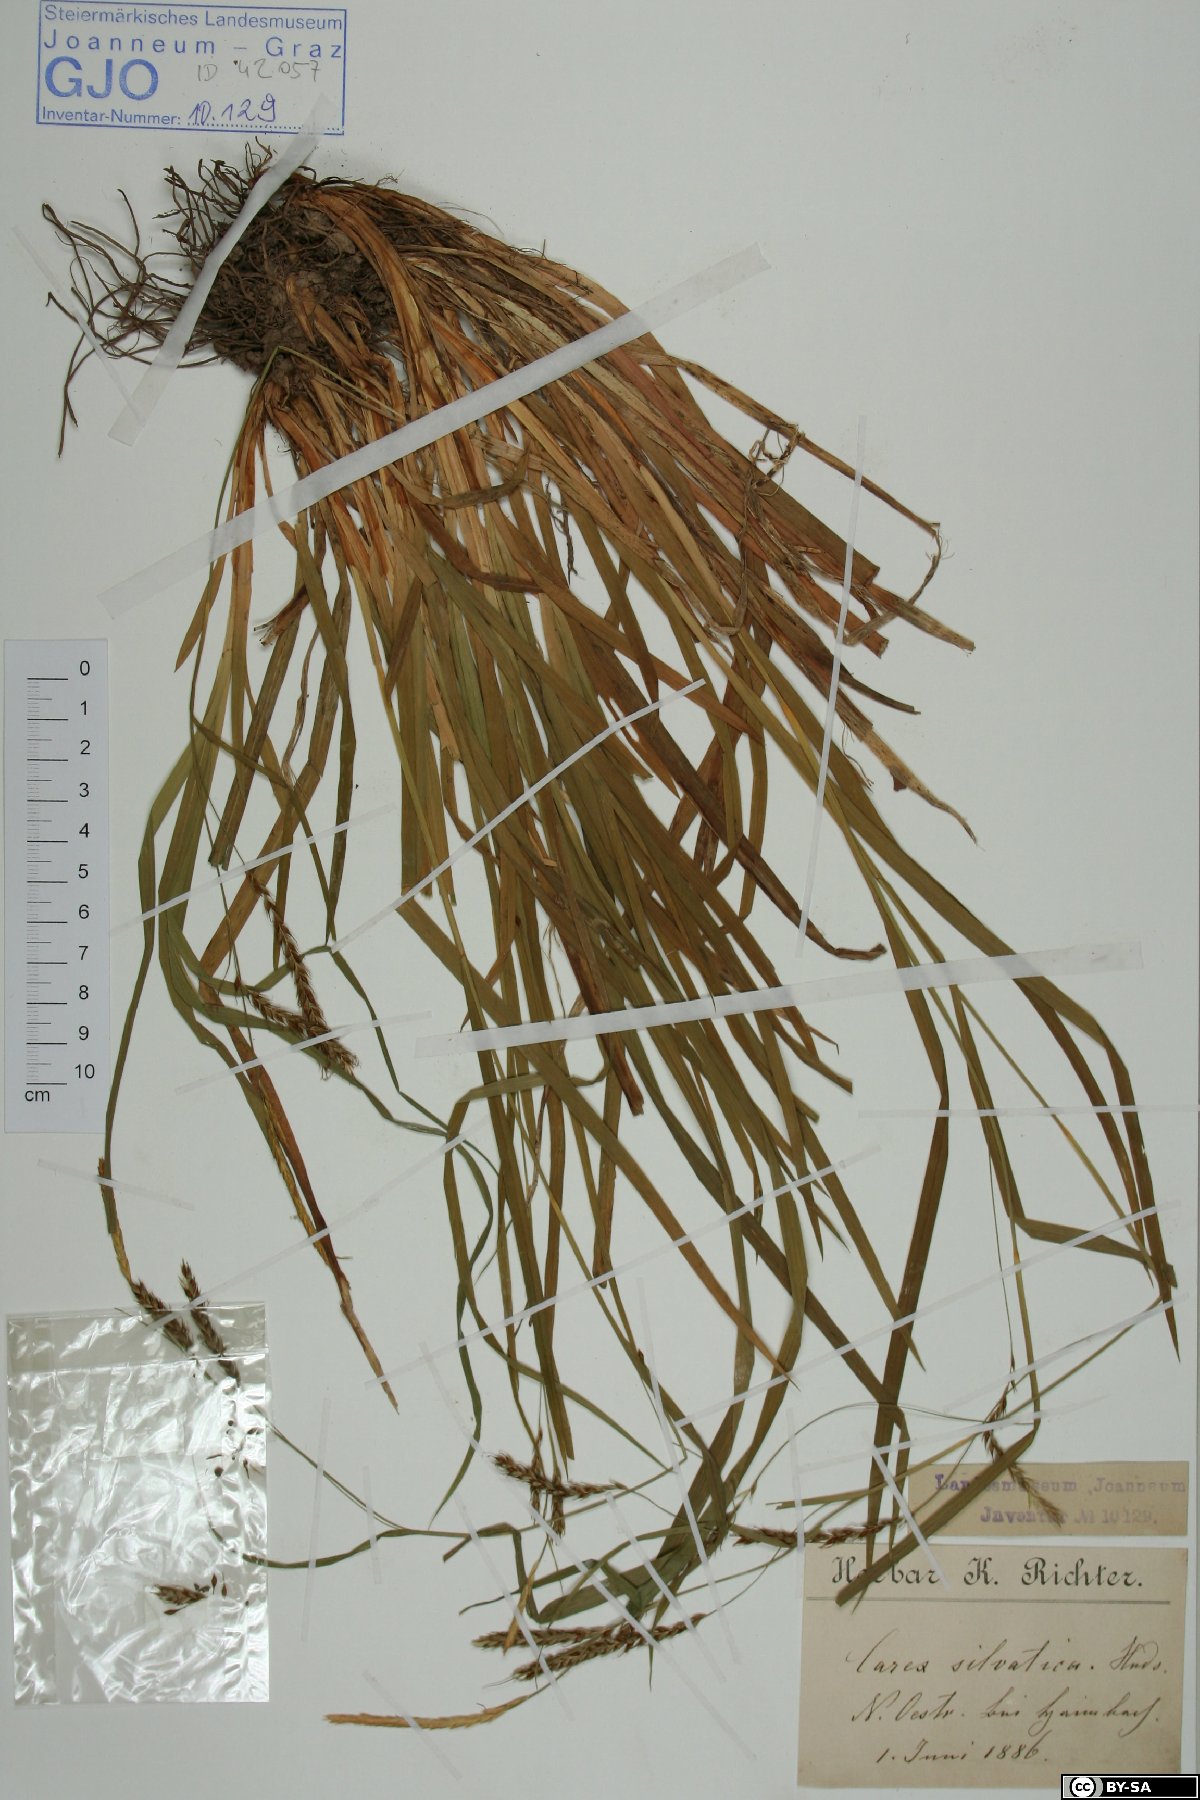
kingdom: Plantae
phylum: Tracheophyta
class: Liliopsida
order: Poales
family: Cyperaceae
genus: Carex
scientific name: Carex sylvatica
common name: Wood-sedge
